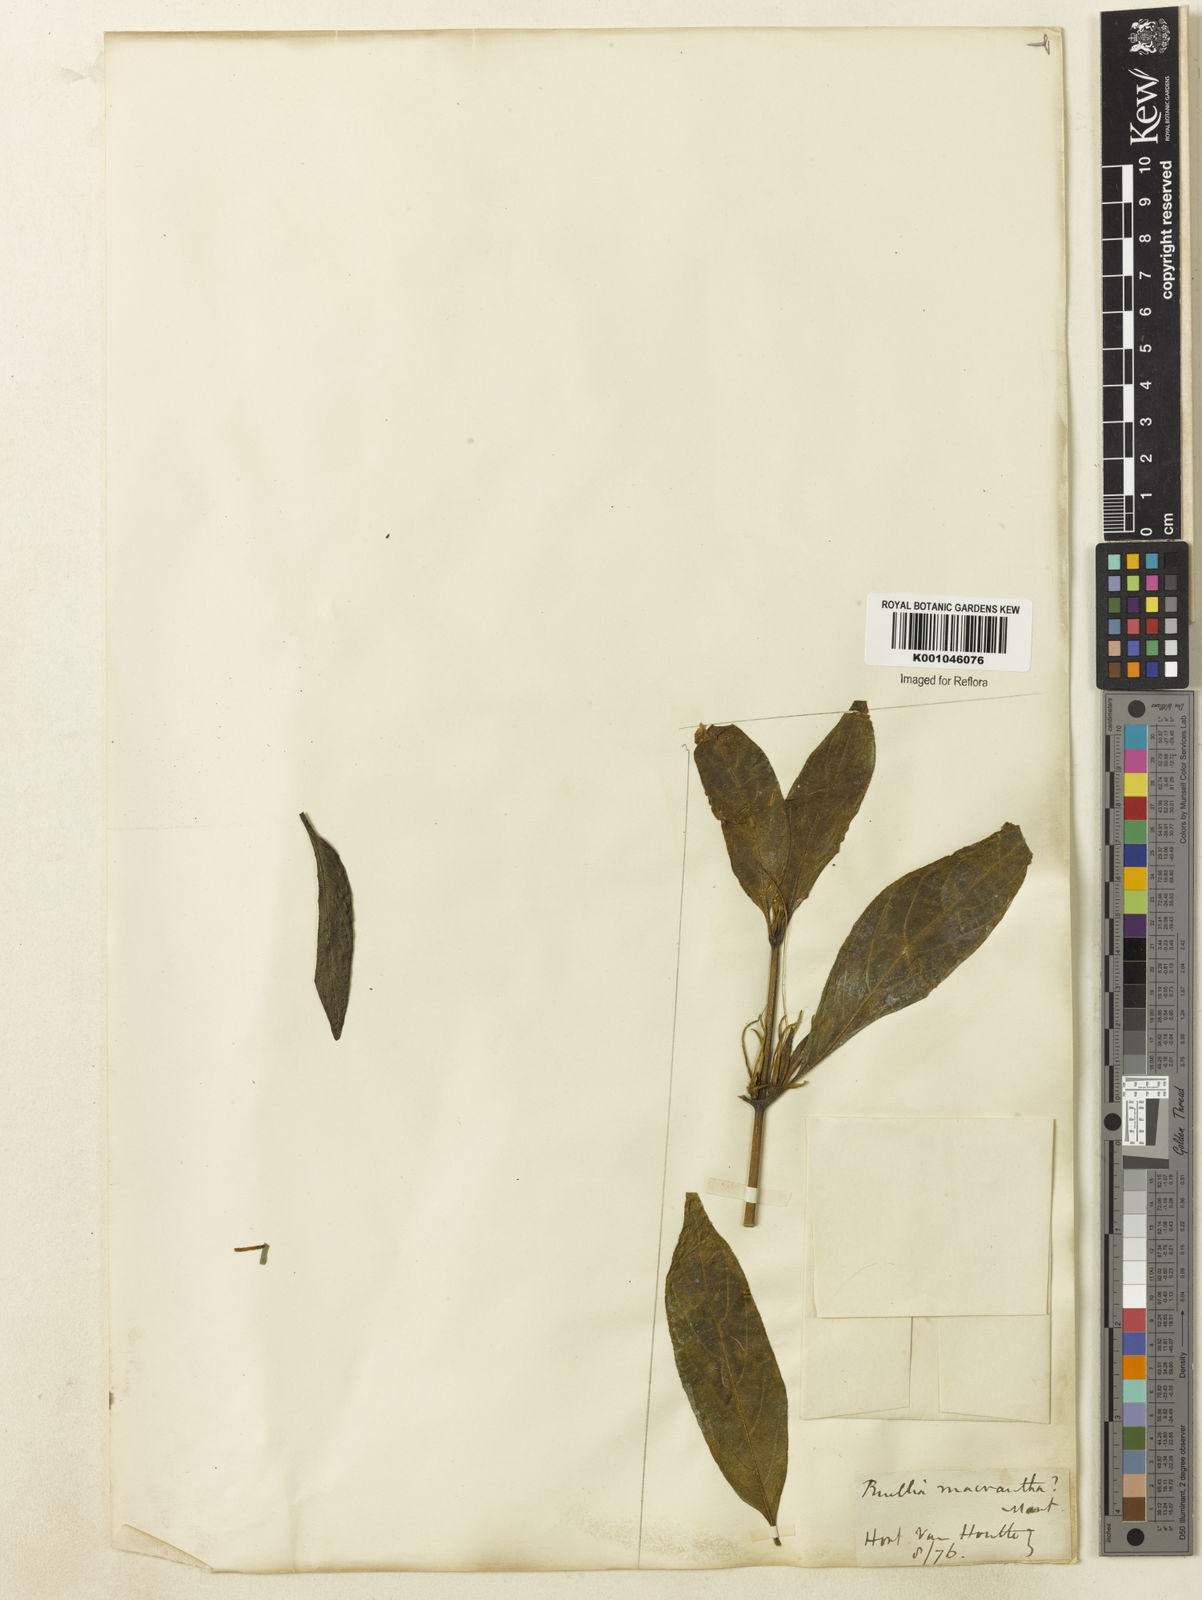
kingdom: Plantae
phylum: Tracheophyta
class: Magnoliopsida
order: Lamiales
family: Acanthaceae
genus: Ruellia
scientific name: Ruellia
